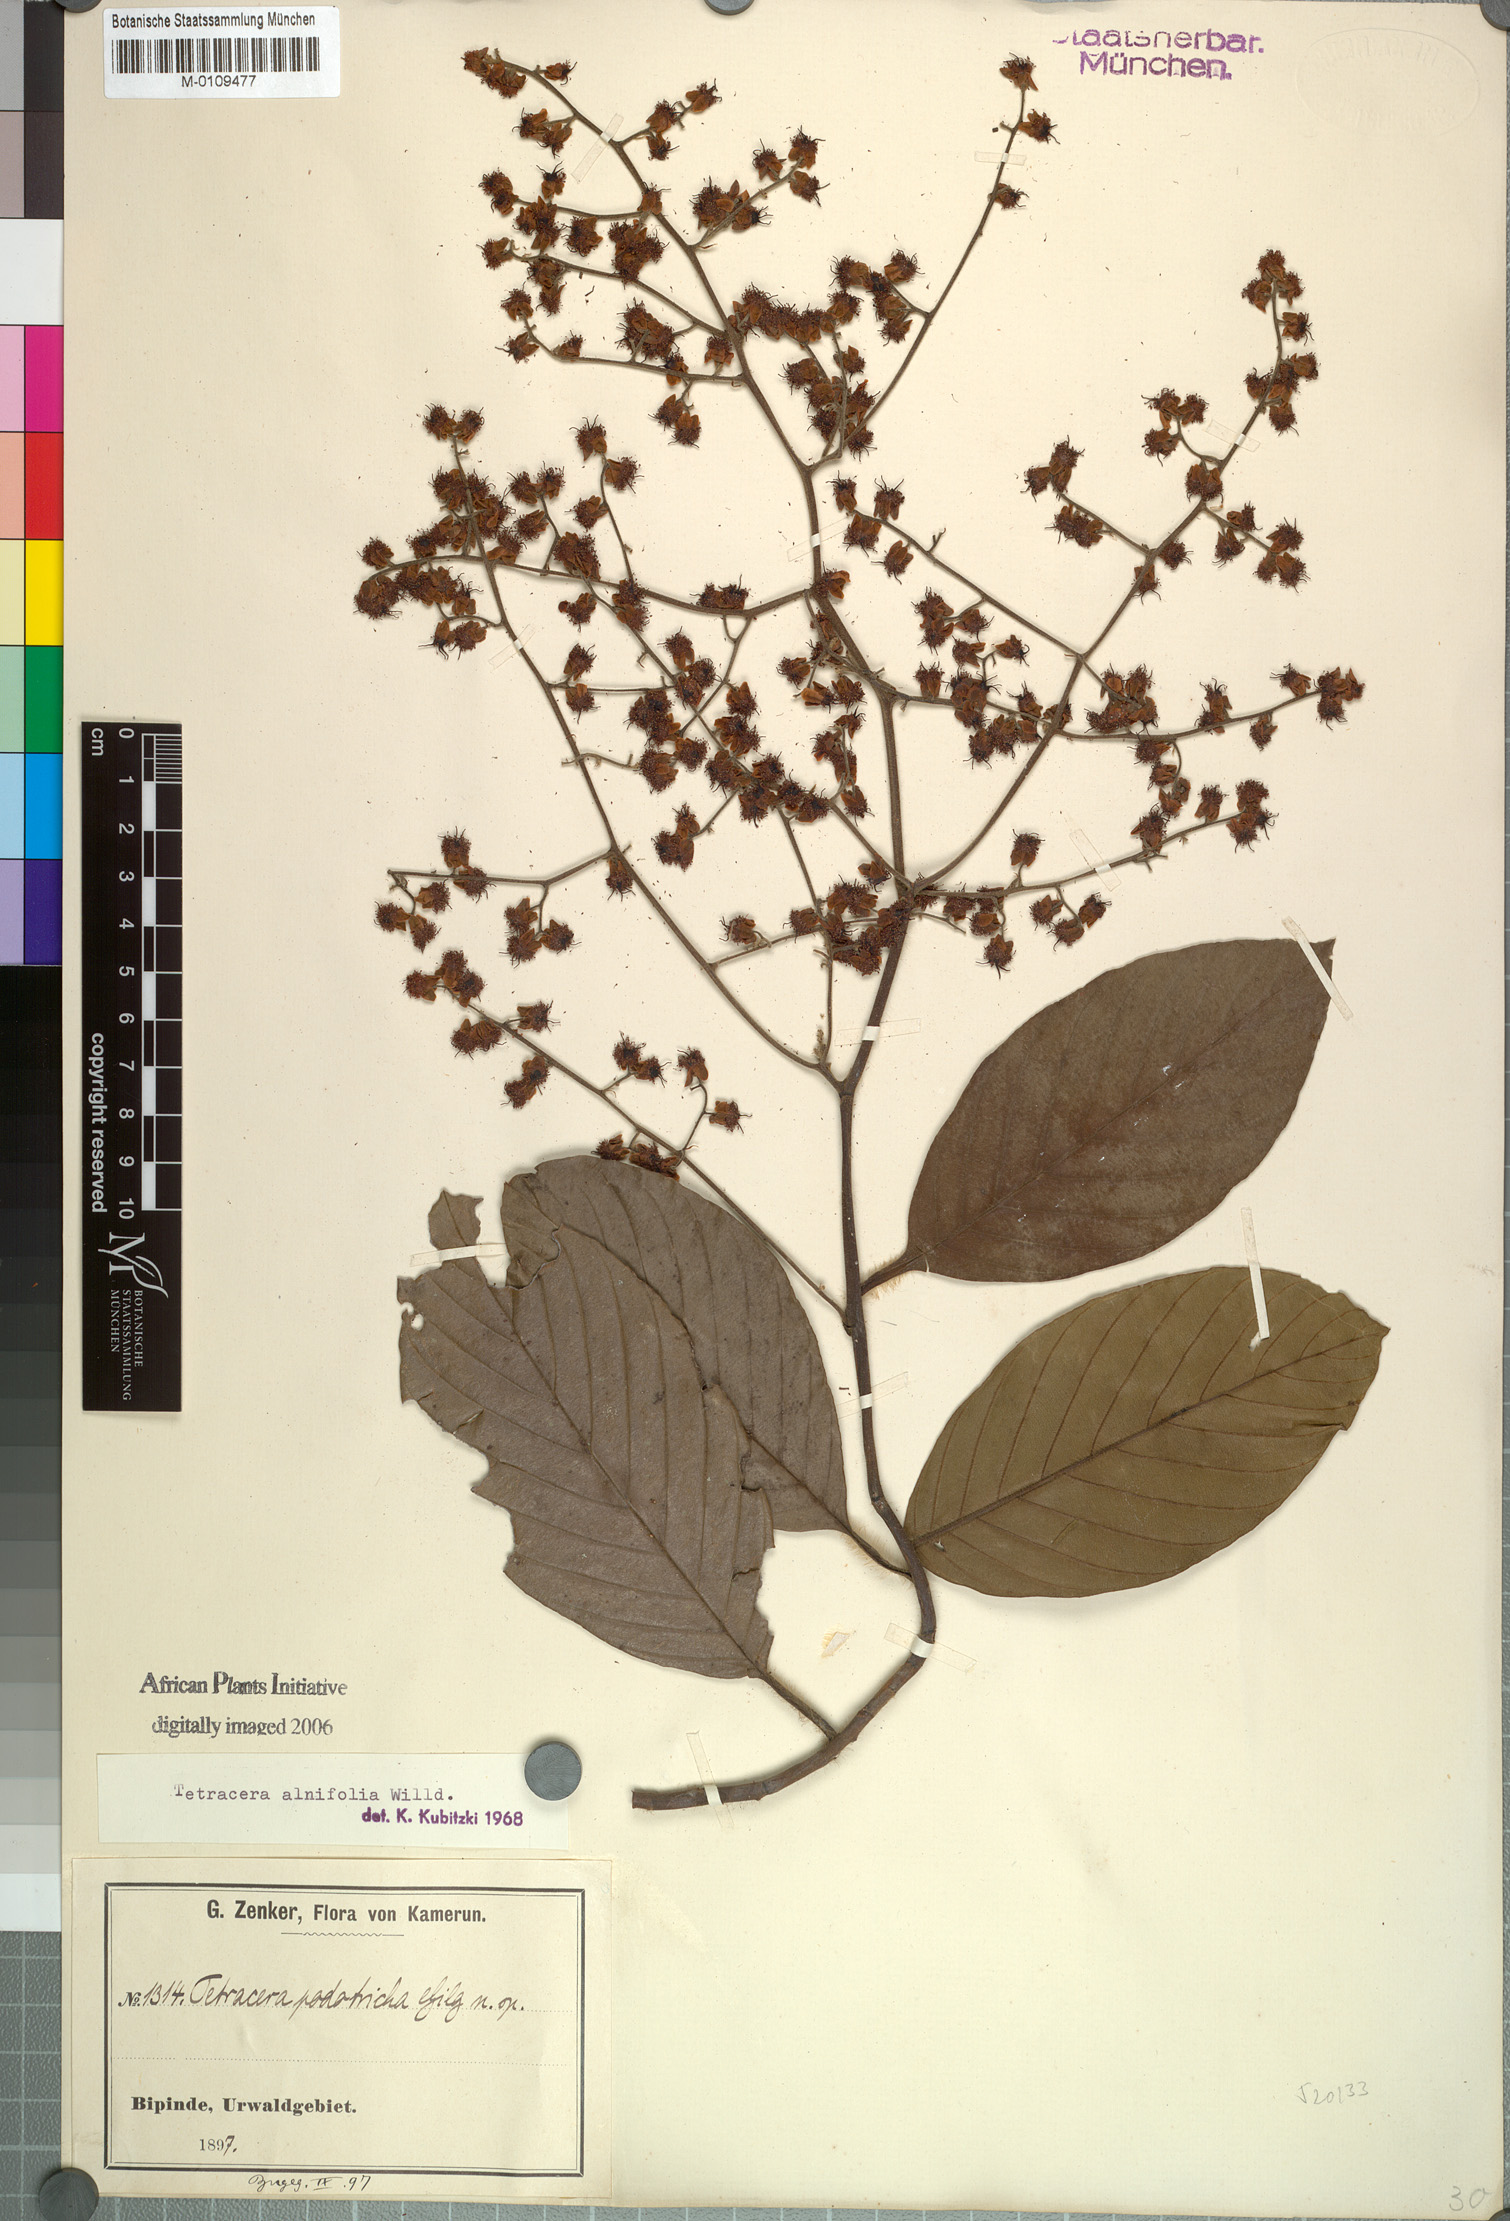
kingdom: Plantae
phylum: Tracheophyta
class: Magnoliopsida
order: Dilleniales
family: Dilleniaceae
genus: Tetracera
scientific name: Tetracera alnifolia
